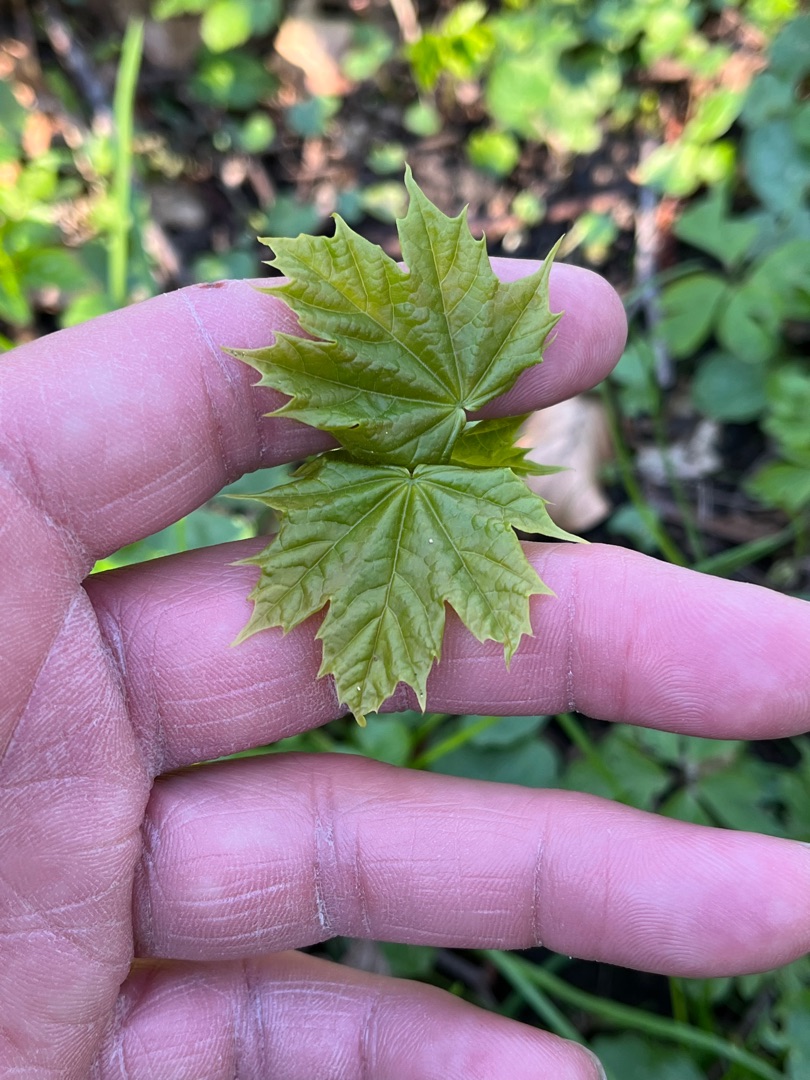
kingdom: Plantae
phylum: Tracheophyta
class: Magnoliopsida
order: Sapindales
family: Sapindaceae
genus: Acer
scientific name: Acer platanoides
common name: Spids-løn
